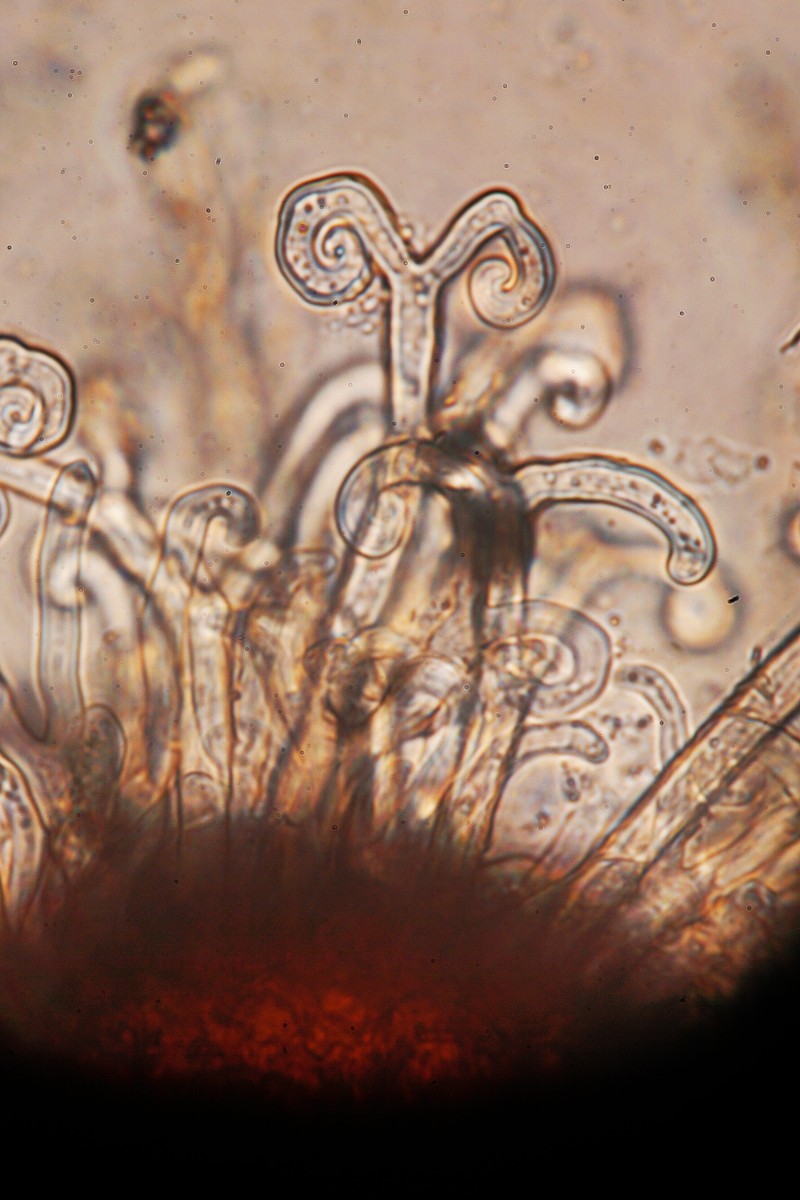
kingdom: Fungi
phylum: Ascomycota
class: Leotiomycetes
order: Helotiales
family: Erysiphaceae
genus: Sawadaea
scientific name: Sawadaea bicornis
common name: Maple mildew
